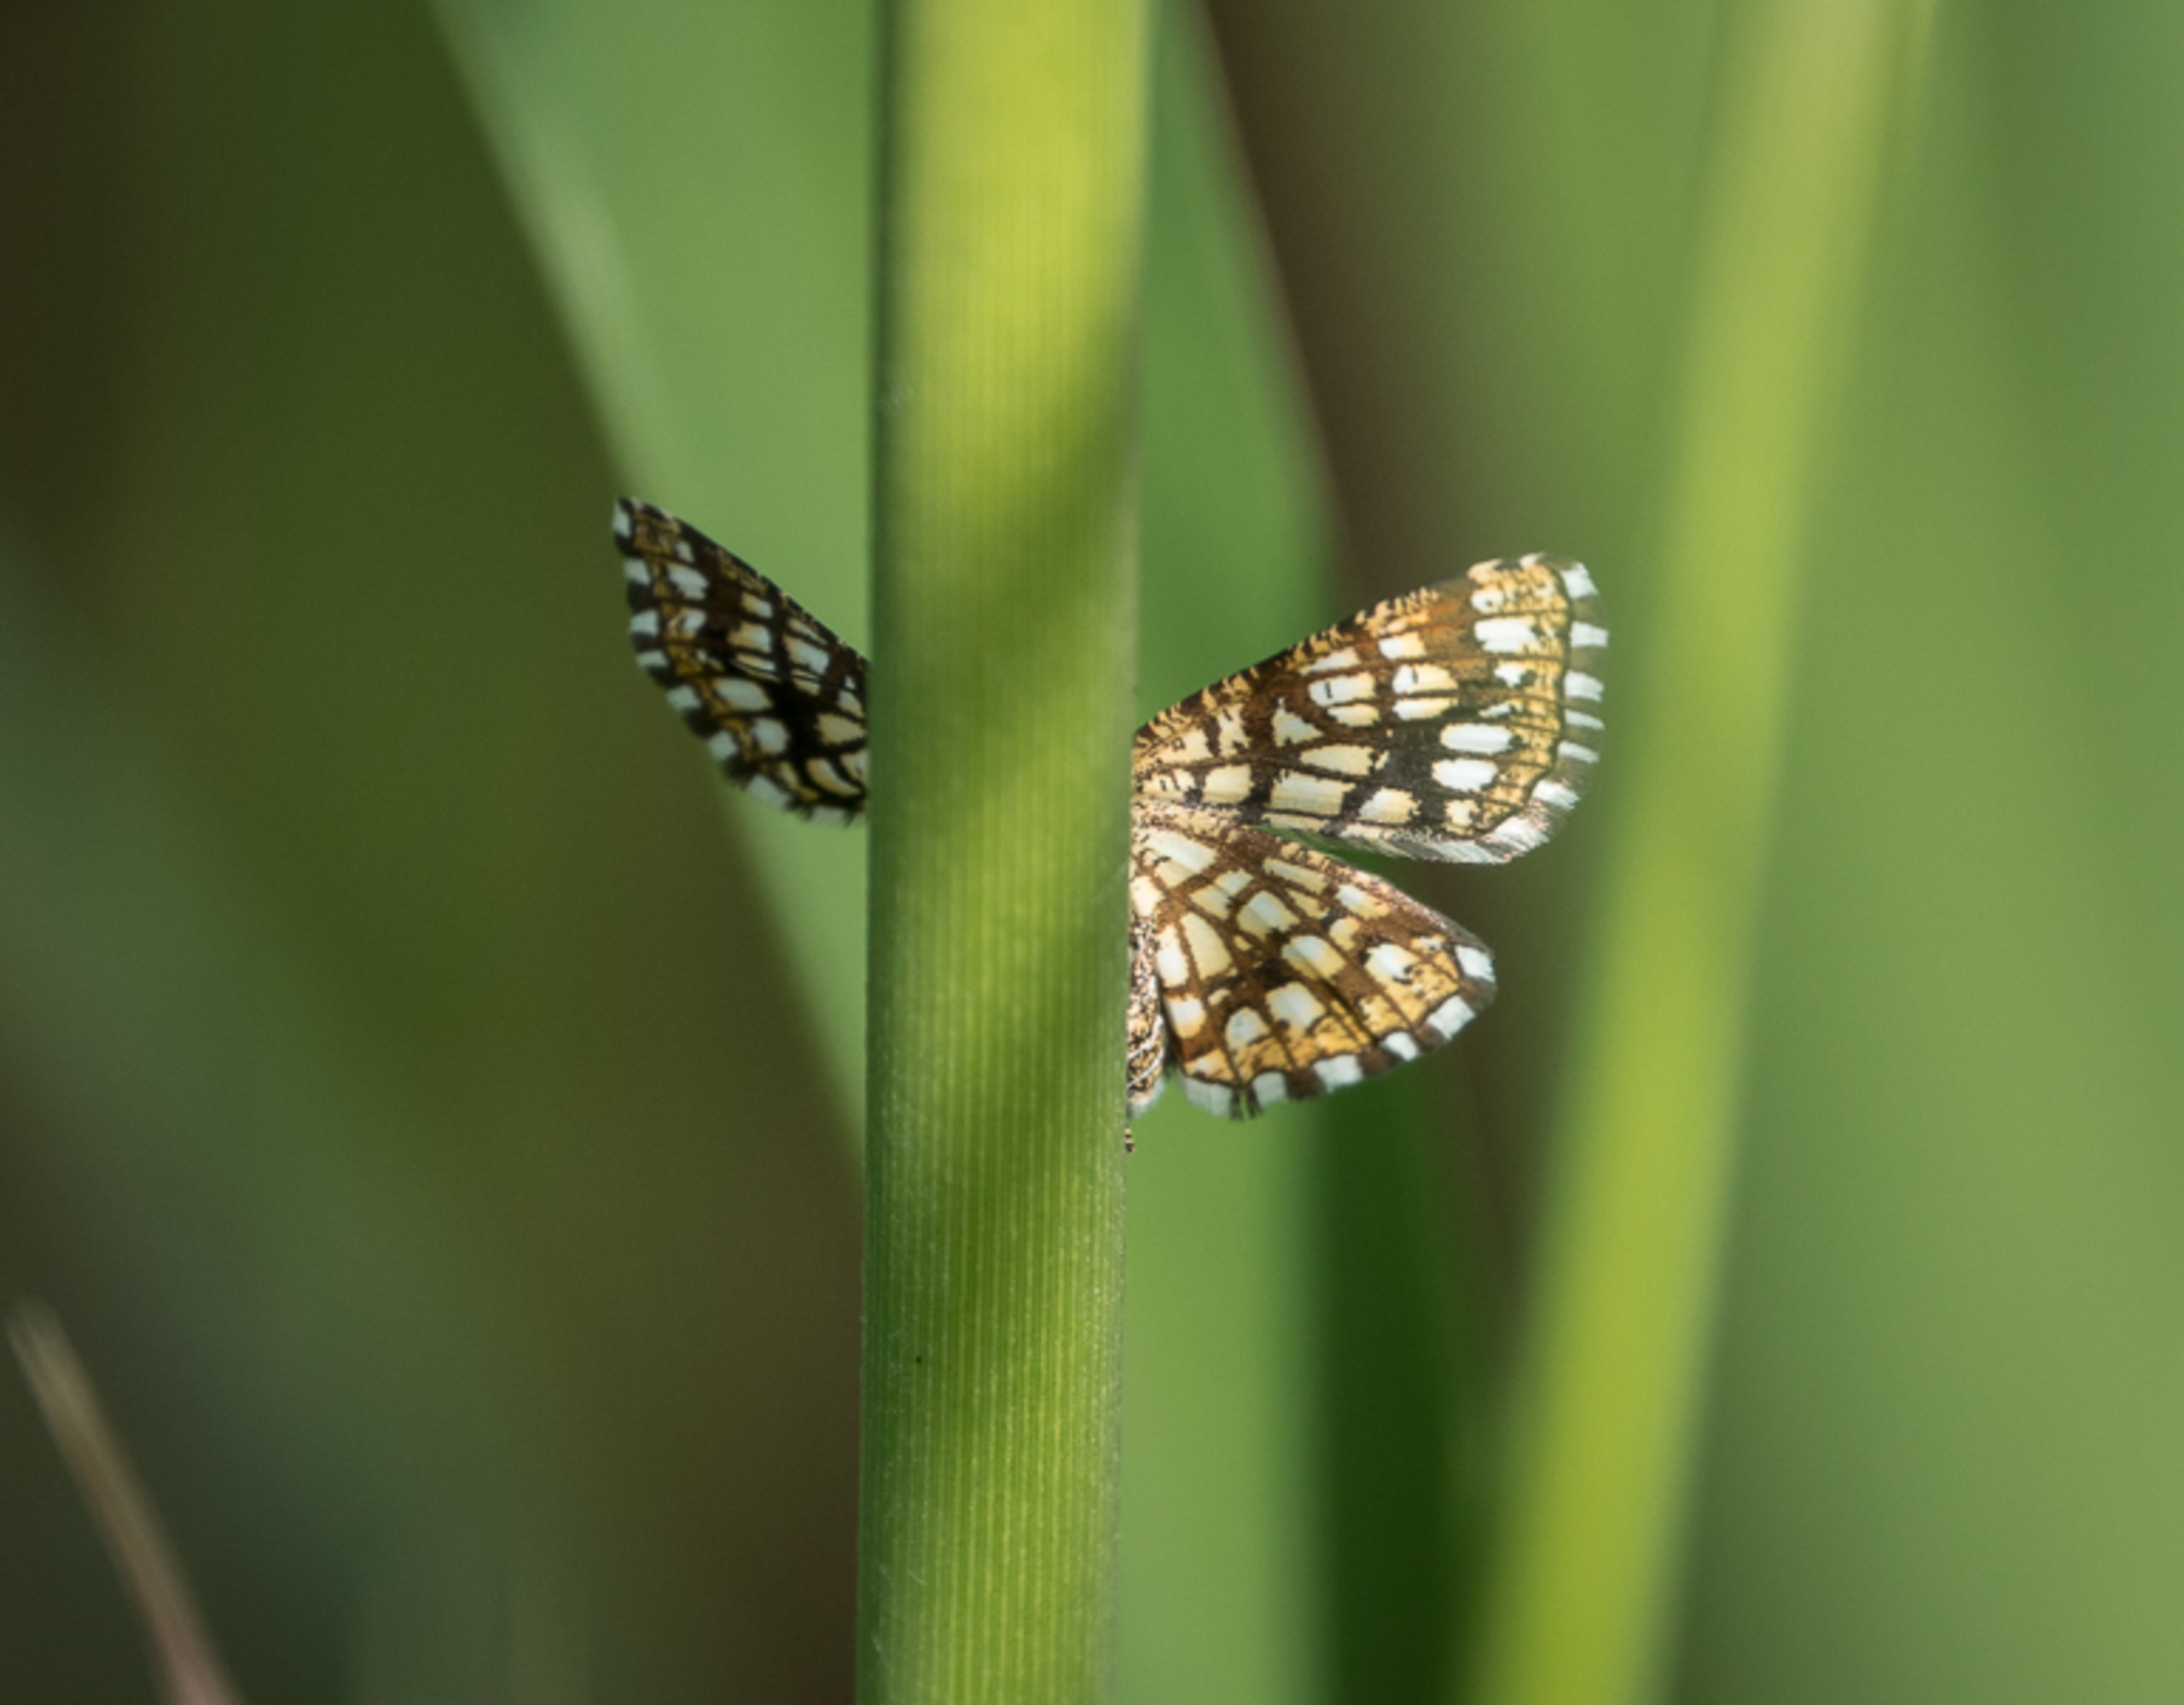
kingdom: Animalia
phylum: Arthropoda
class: Insecta
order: Lepidoptera
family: Geometridae
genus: Chiasmia
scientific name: Chiasmia clathrata
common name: Kløvermåler
